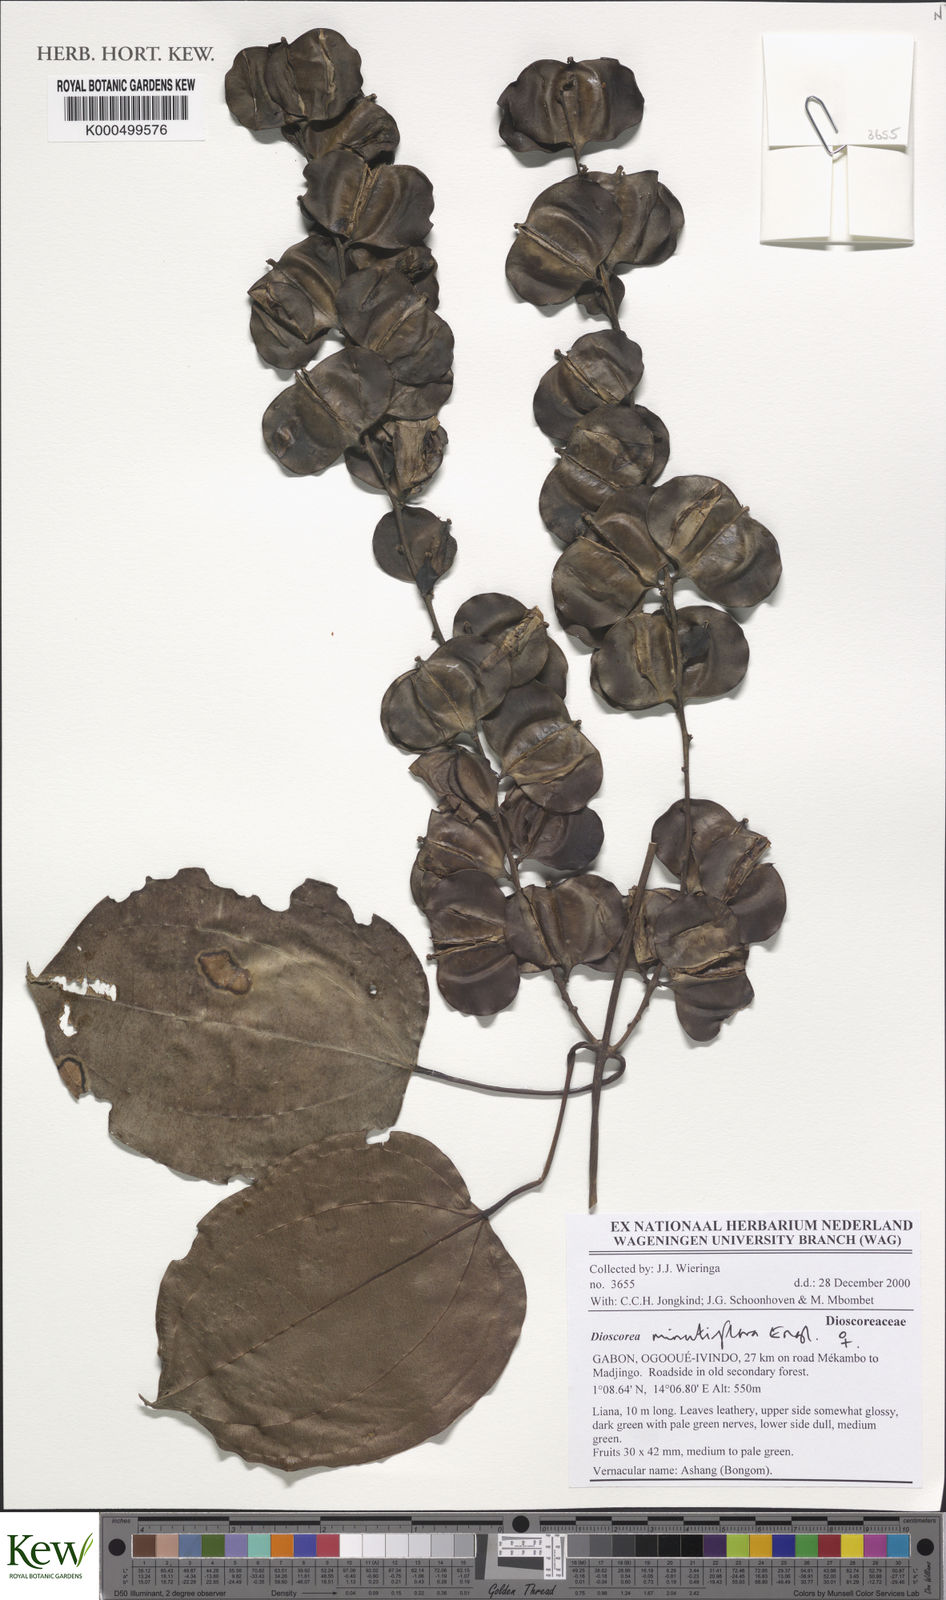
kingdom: Plantae
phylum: Tracheophyta
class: Liliopsida
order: Dioscoreales
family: Dioscoreaceae
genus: Dioscorea
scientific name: Dioscorea minutiflora
